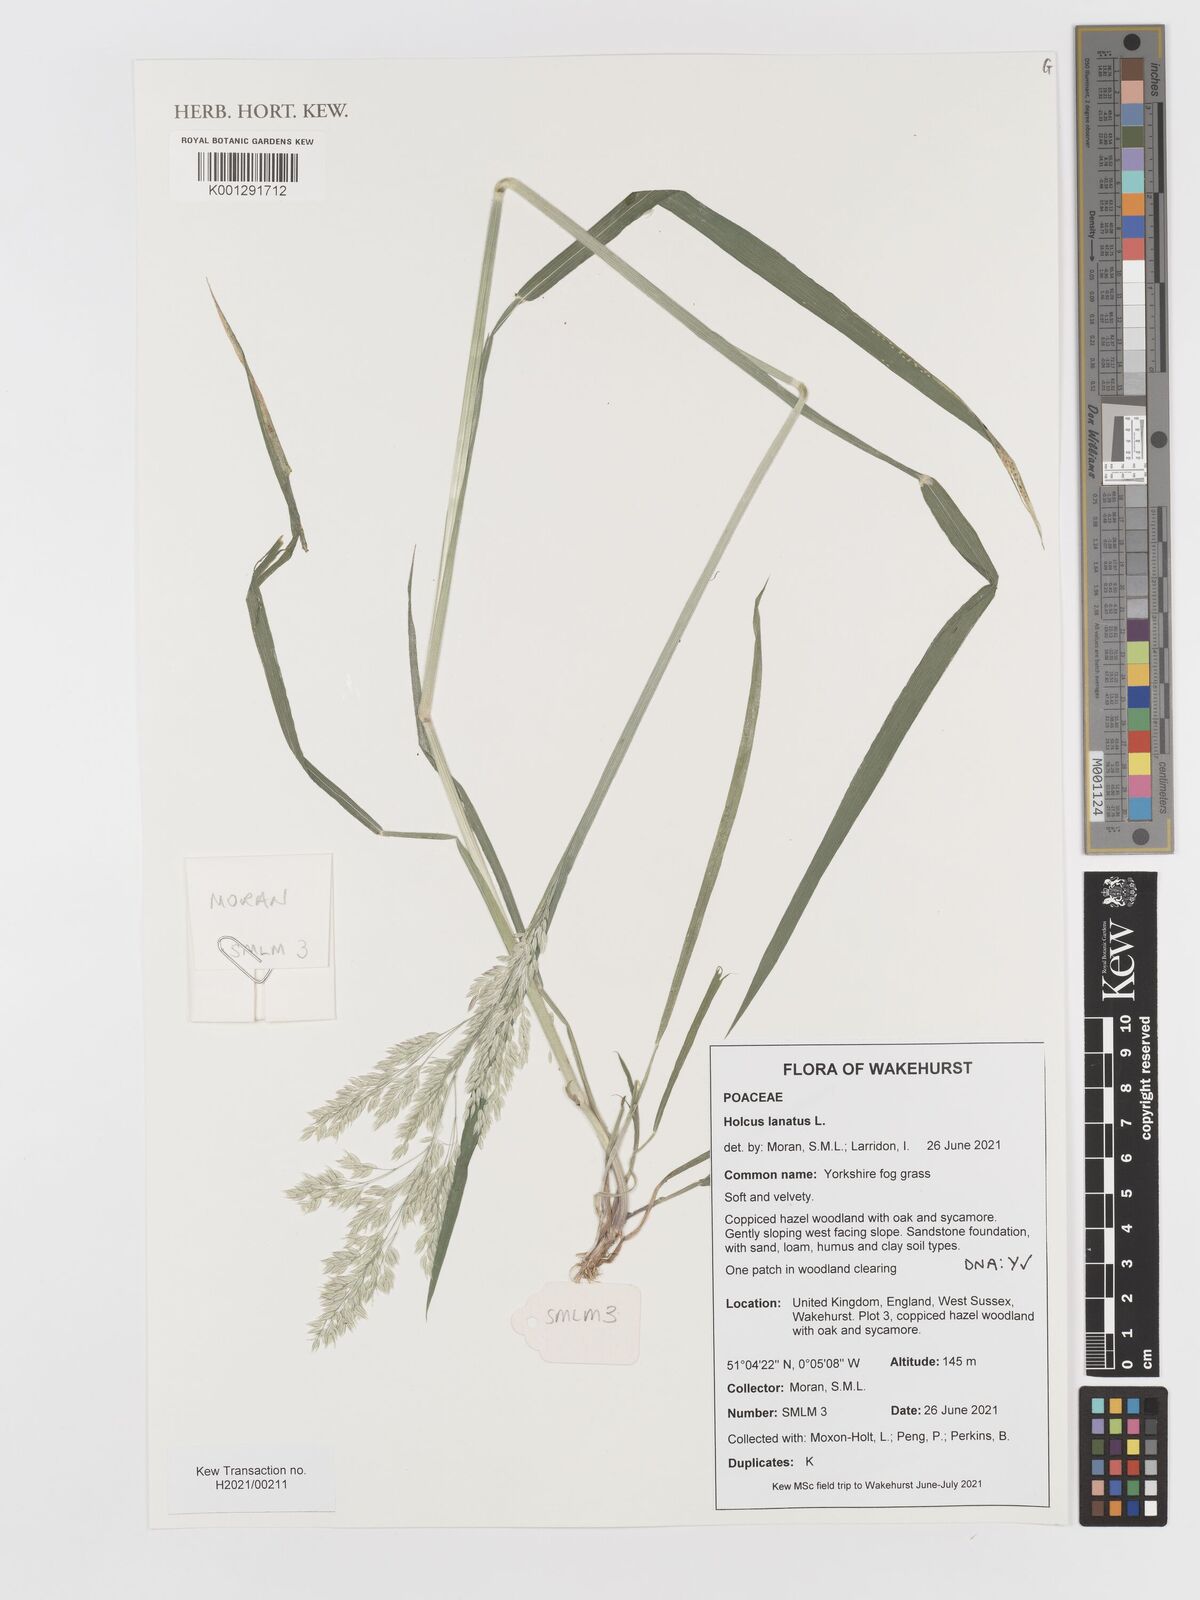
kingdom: Plantae
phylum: Tracheophyta
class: Liliopsida
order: Poales
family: Poaceae
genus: Holcus
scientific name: Holcus lanatus
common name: Yorkshire-fog
